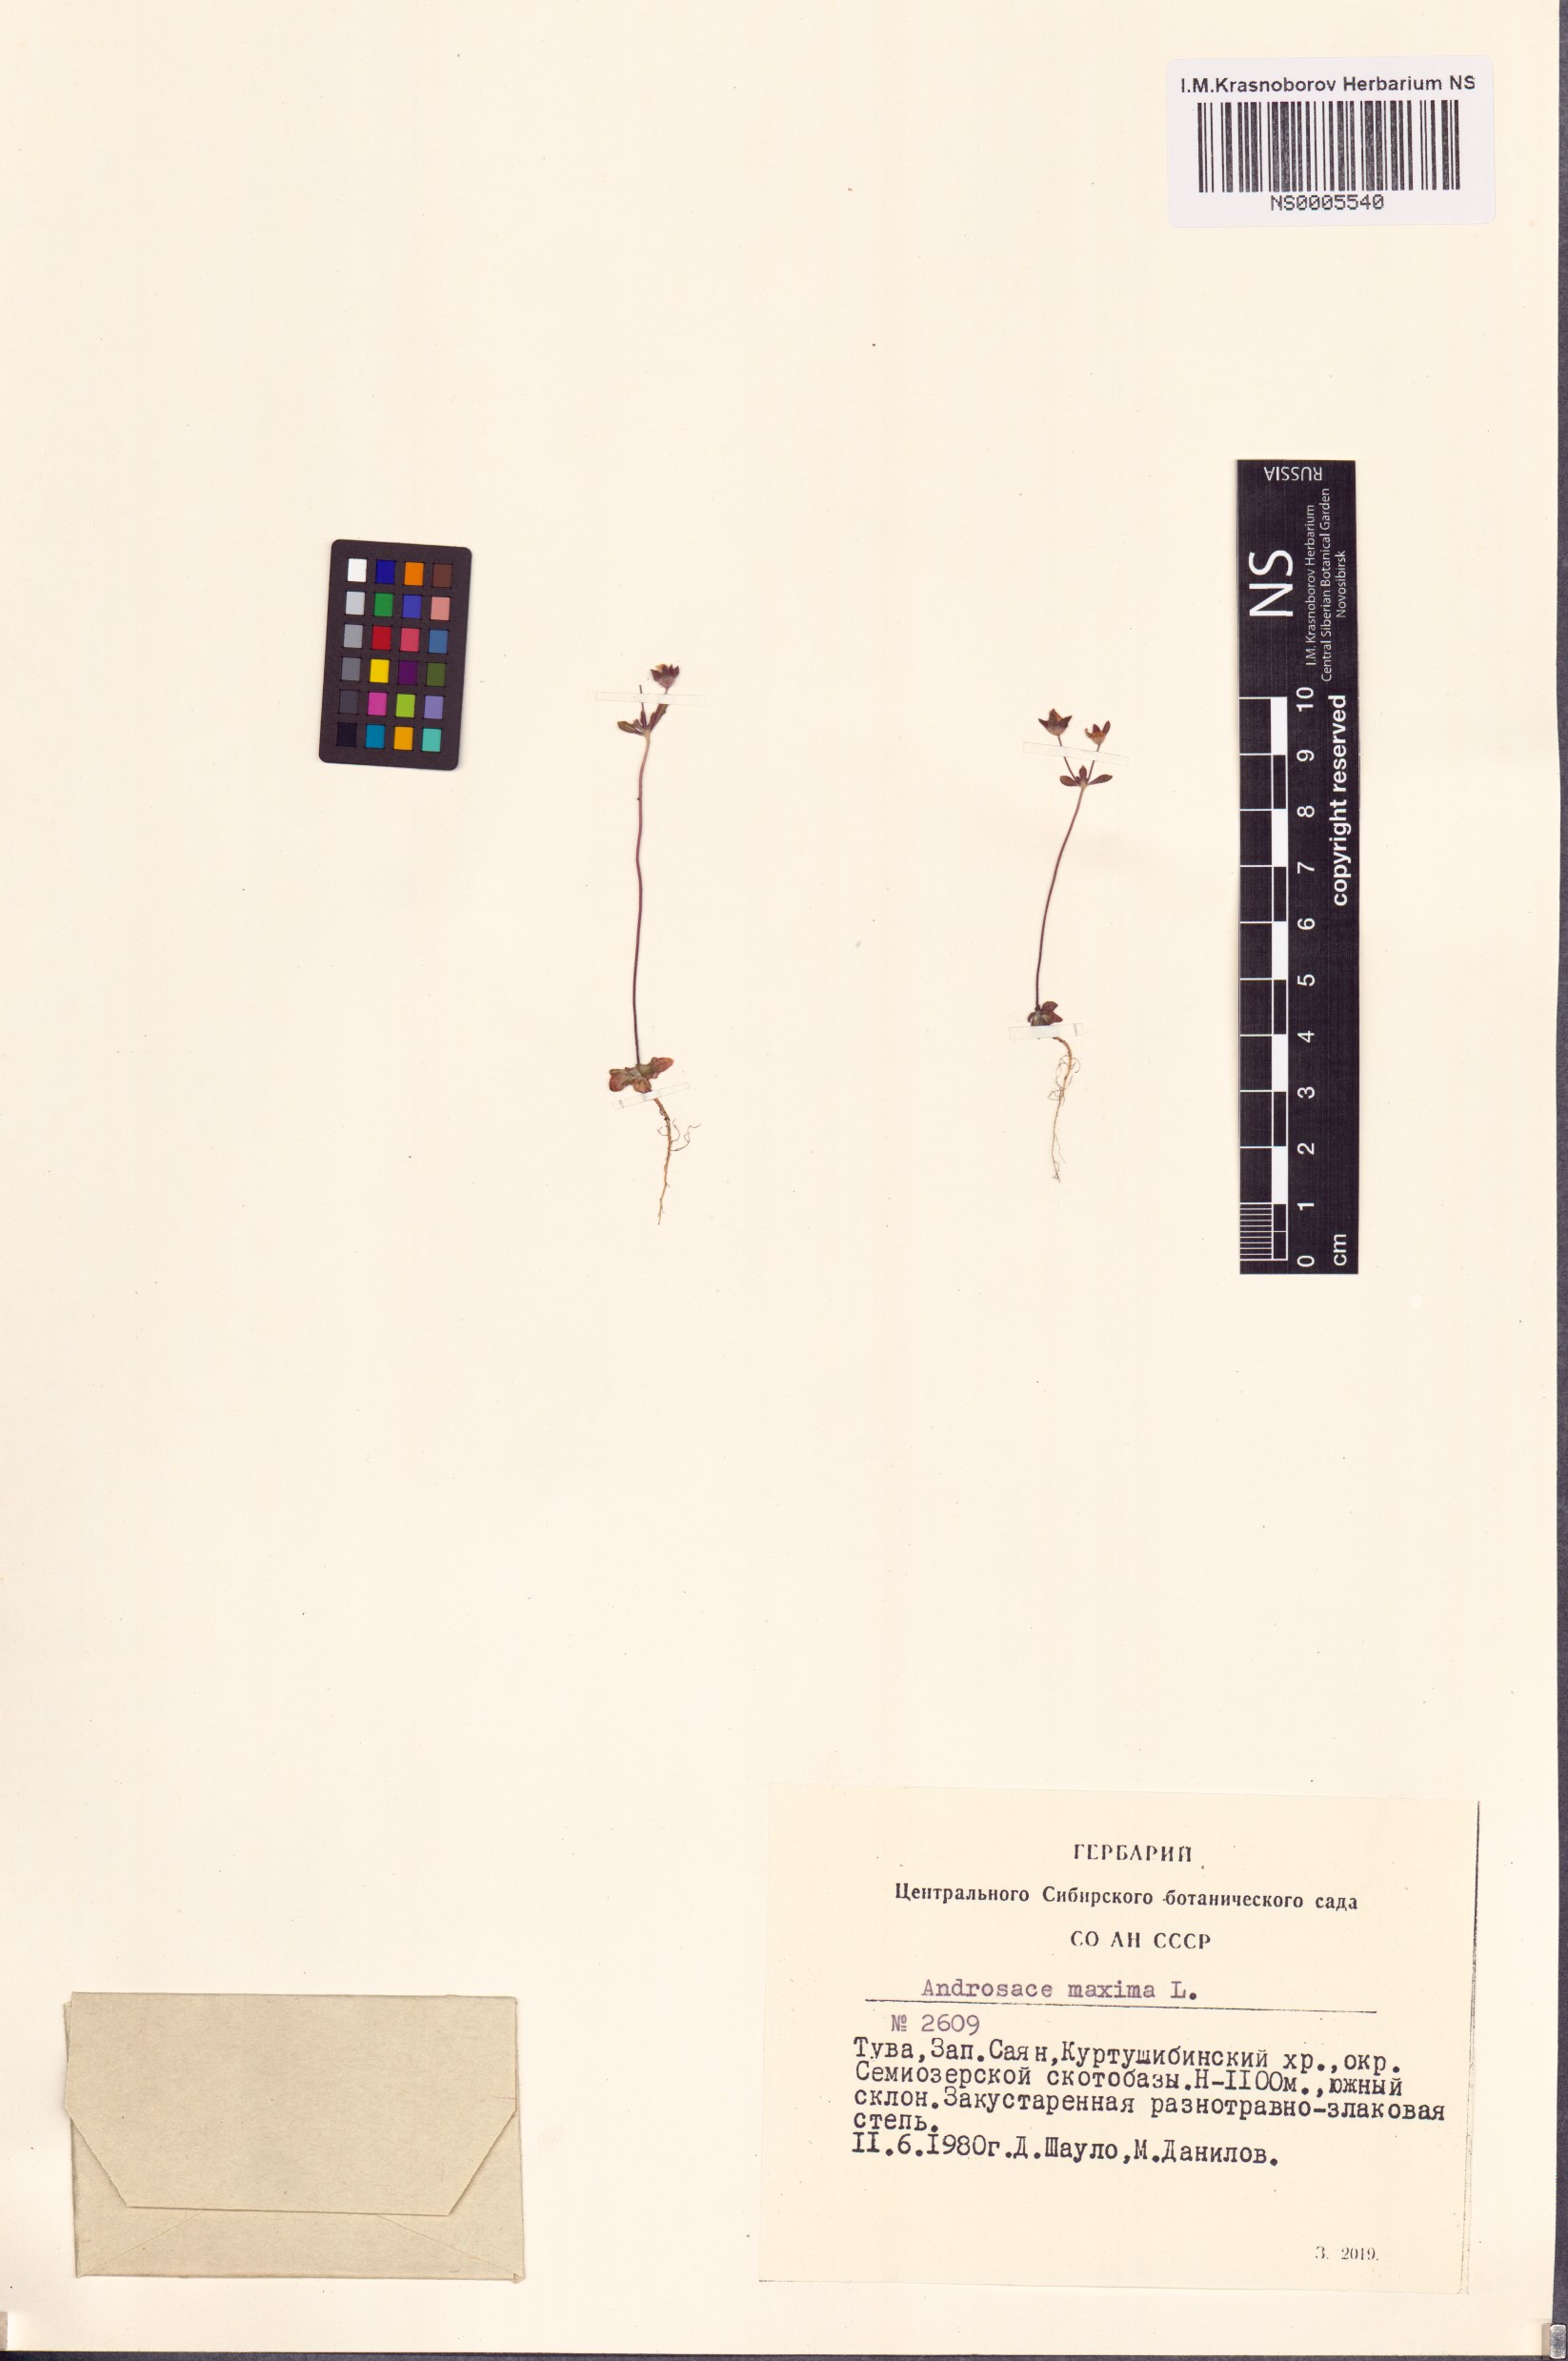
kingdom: Plantae
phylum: Tracheophyta
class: Magnoliopsida
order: Ericales
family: Primulaceae
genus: Androsace
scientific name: Androsace maxima
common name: Annual androsace
